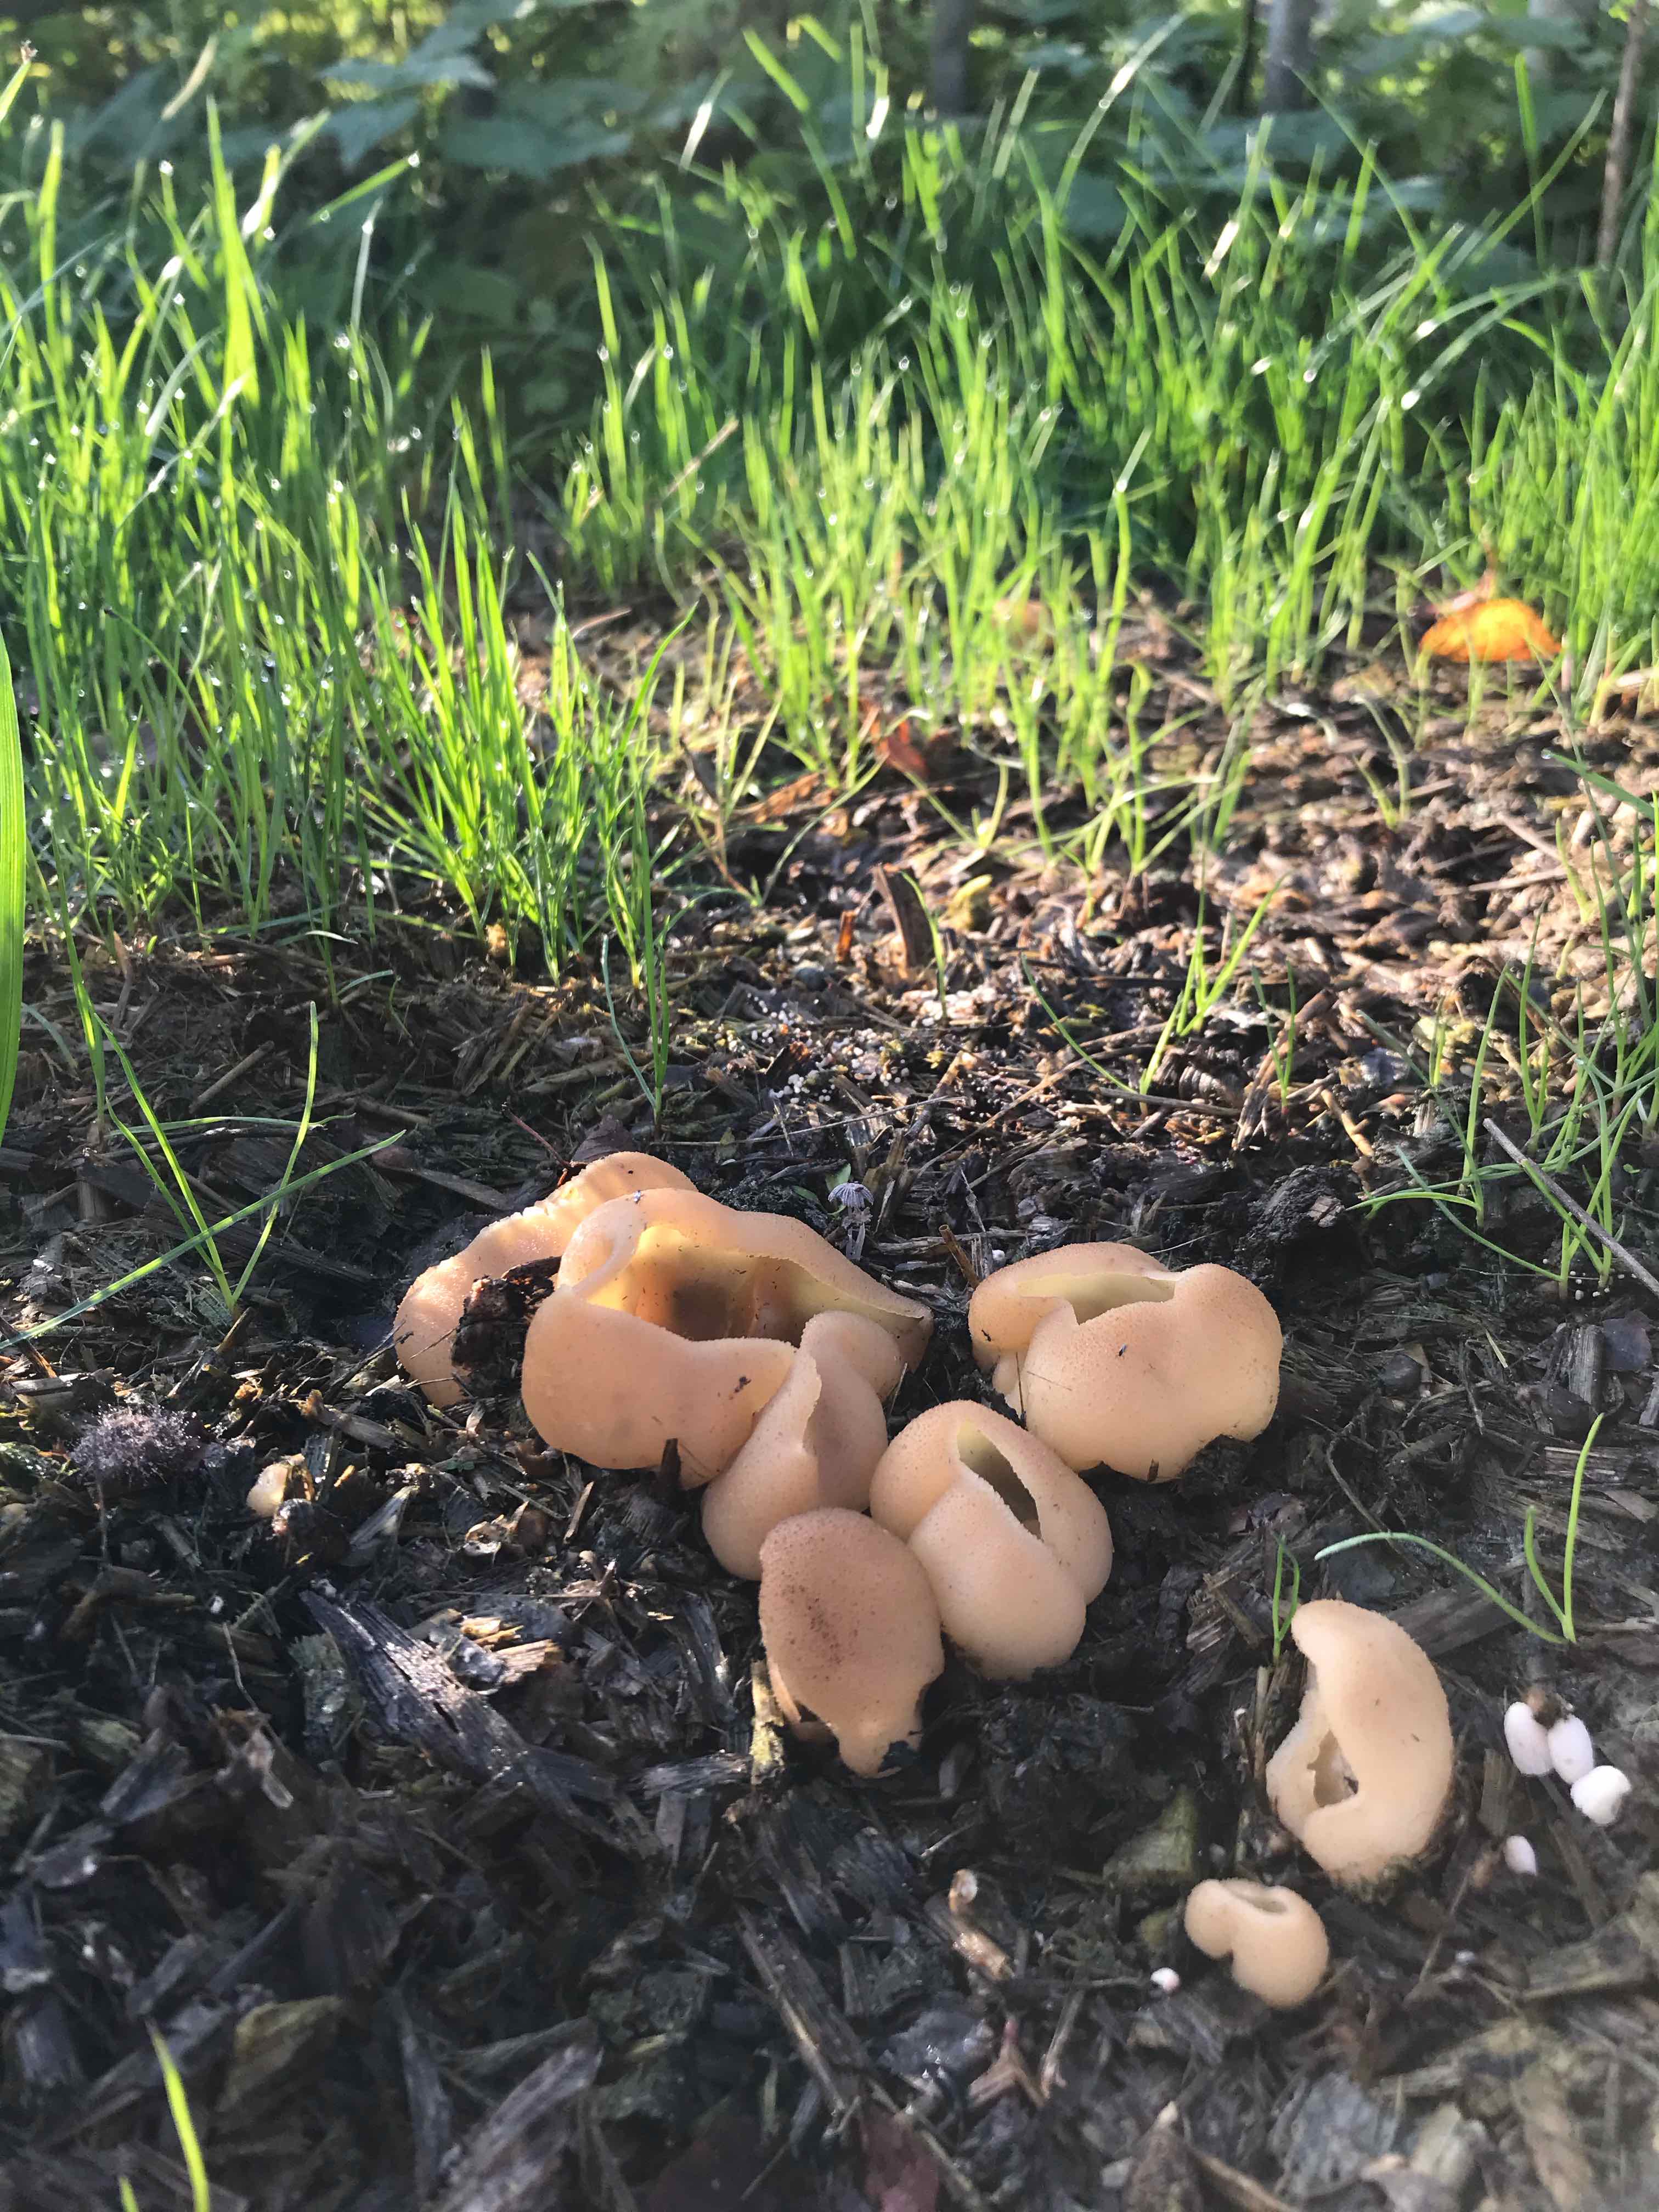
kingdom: Fungi
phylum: Ascomycota
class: Pezizomycetes
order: Pezizales
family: Pezizaceae
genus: Peziza
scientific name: Peziza vesiculosa
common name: blære-bægersvamp
